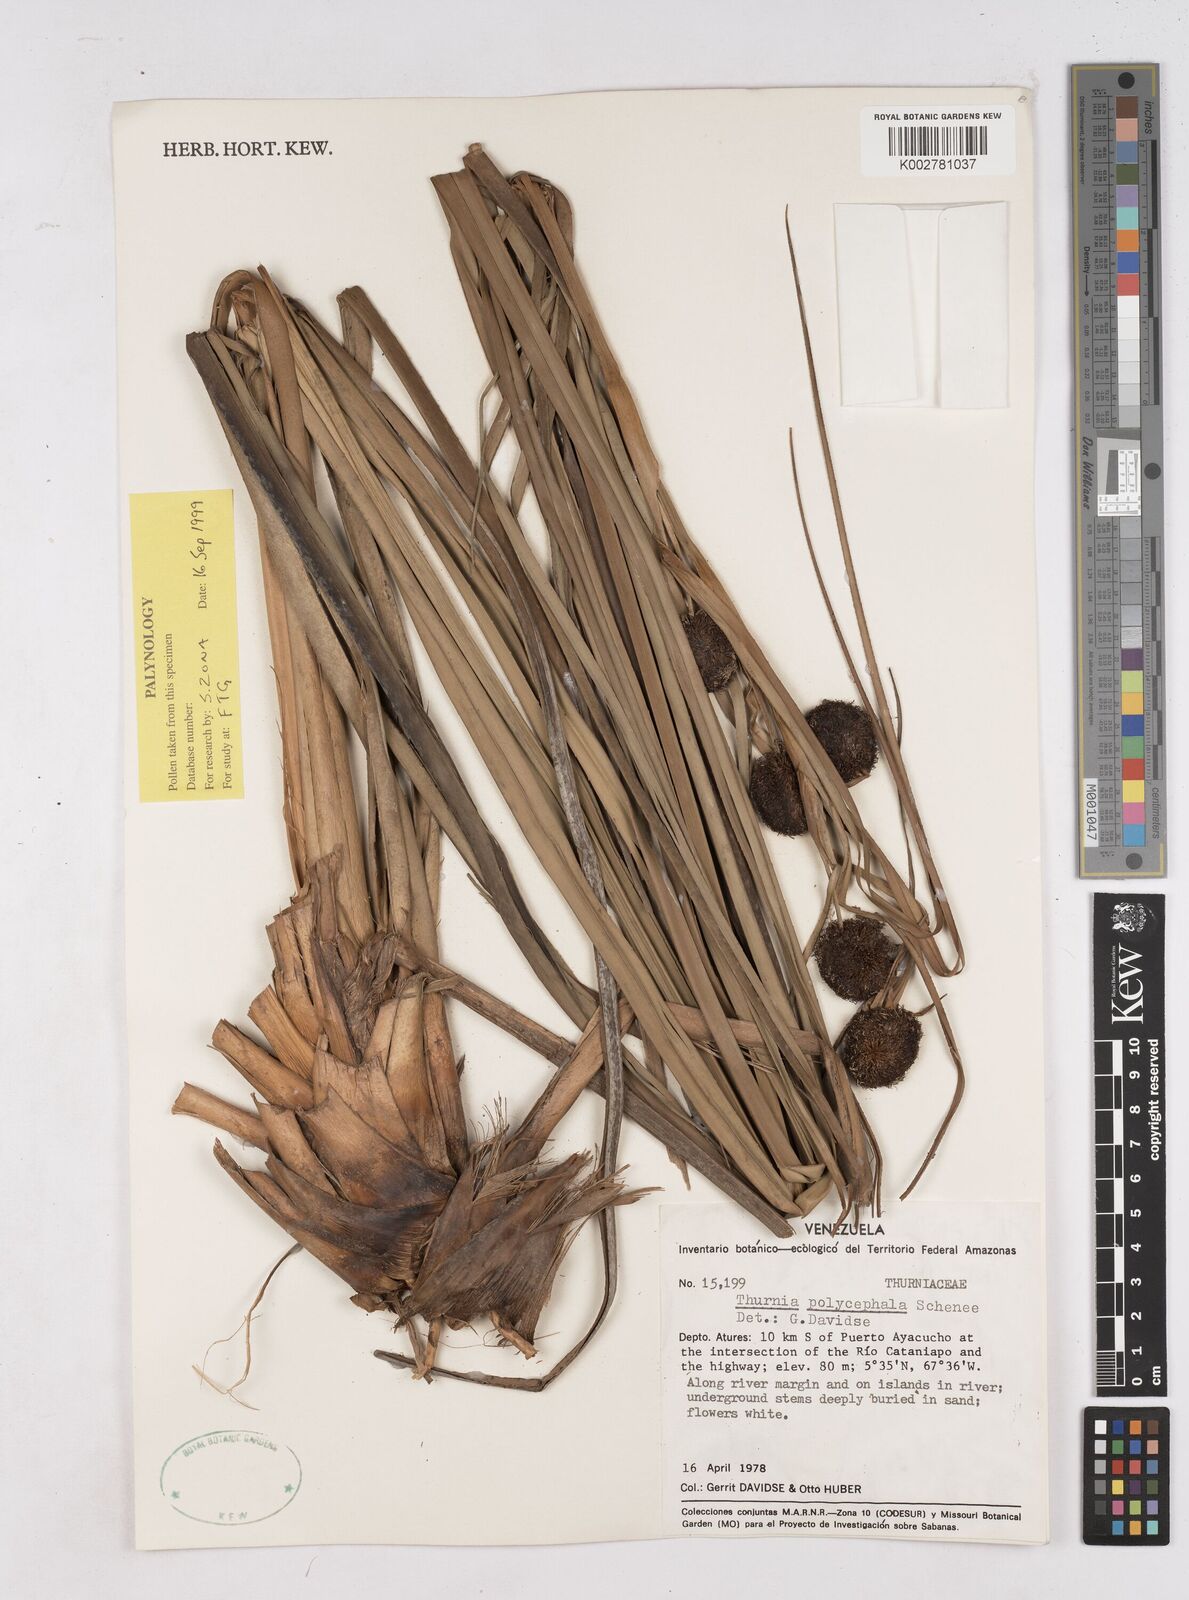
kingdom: Plantae
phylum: Tracheophyta
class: Liliopsida
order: Poales
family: Thurniaceae
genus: Thurnia
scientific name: Thurnia polycephala
